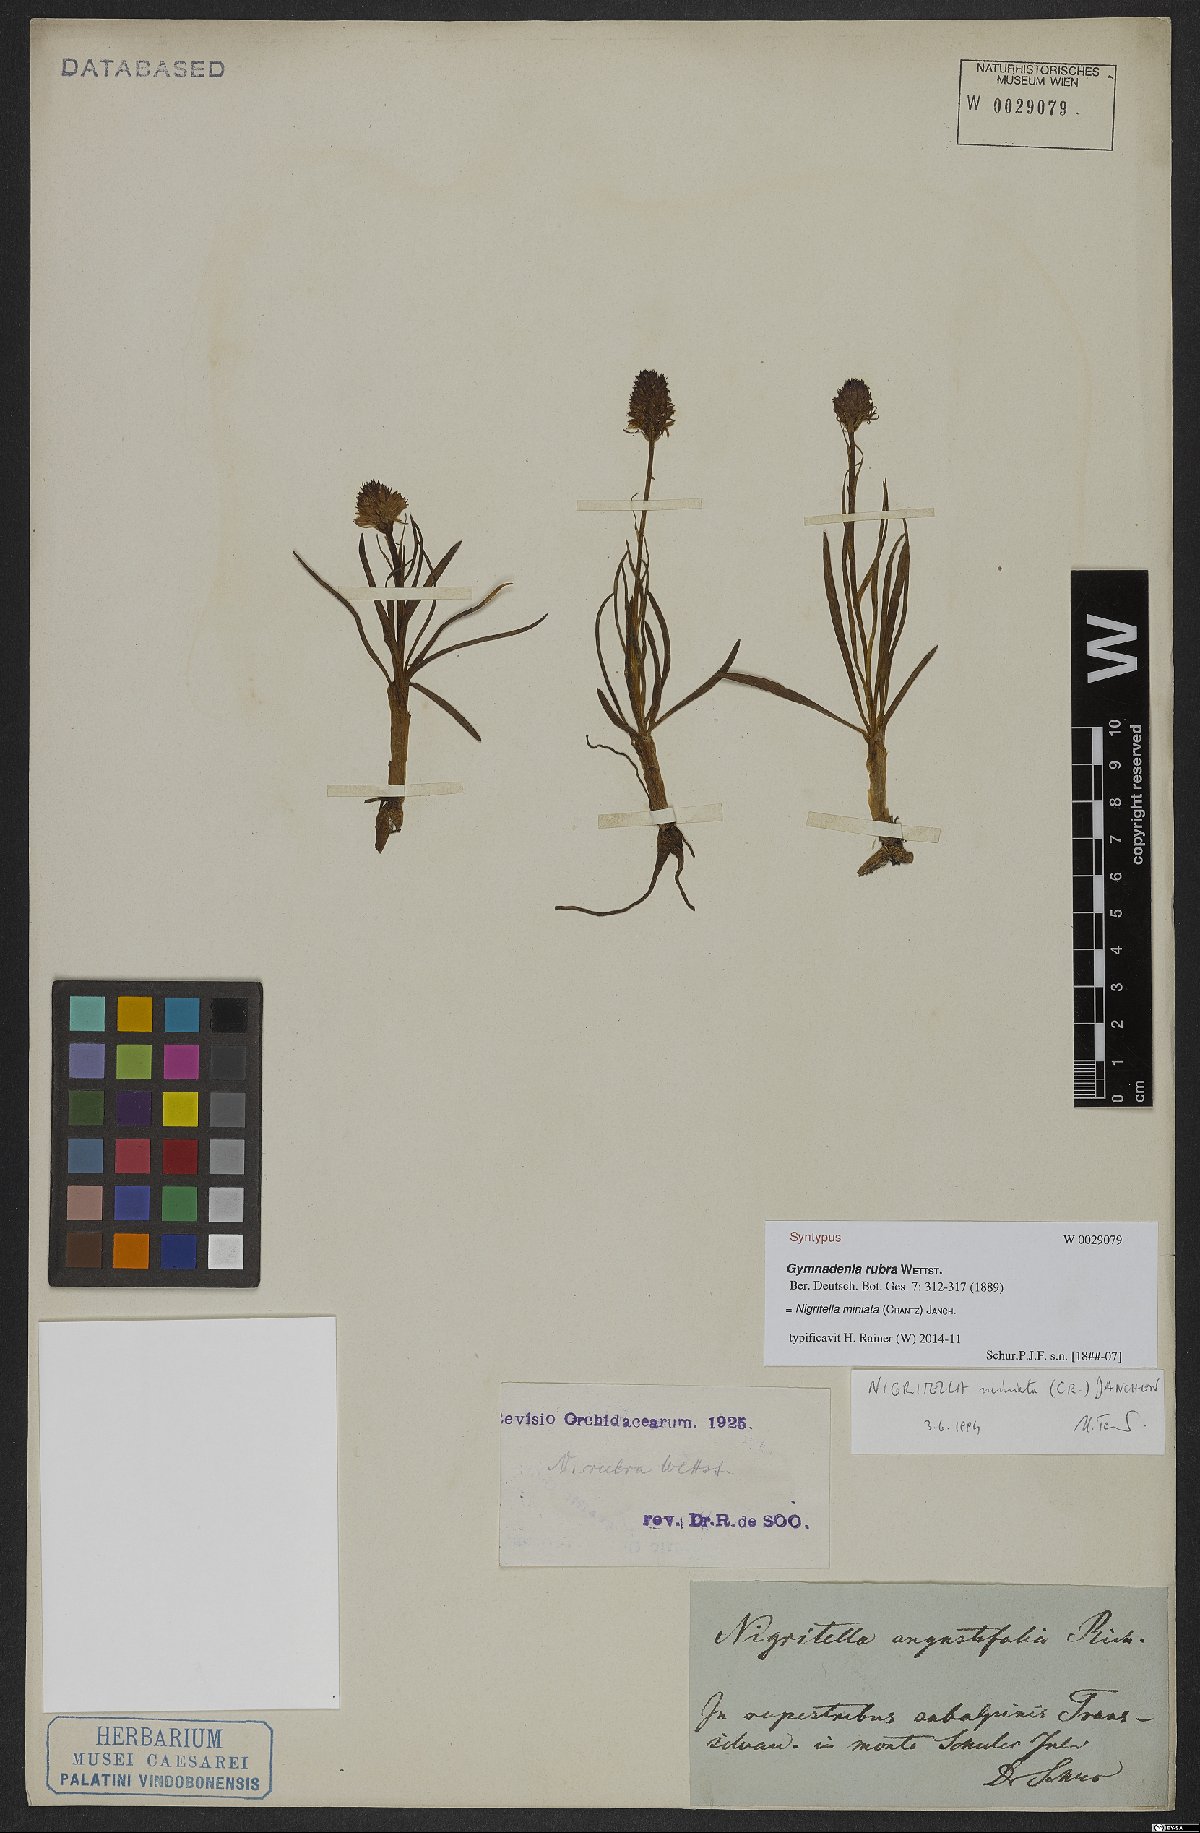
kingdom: Plantae
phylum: Tracheophyta
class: Liliopsida
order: Asparagales
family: Orchidaceae
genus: Gymnadenia
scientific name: Gymnadenia miniata
